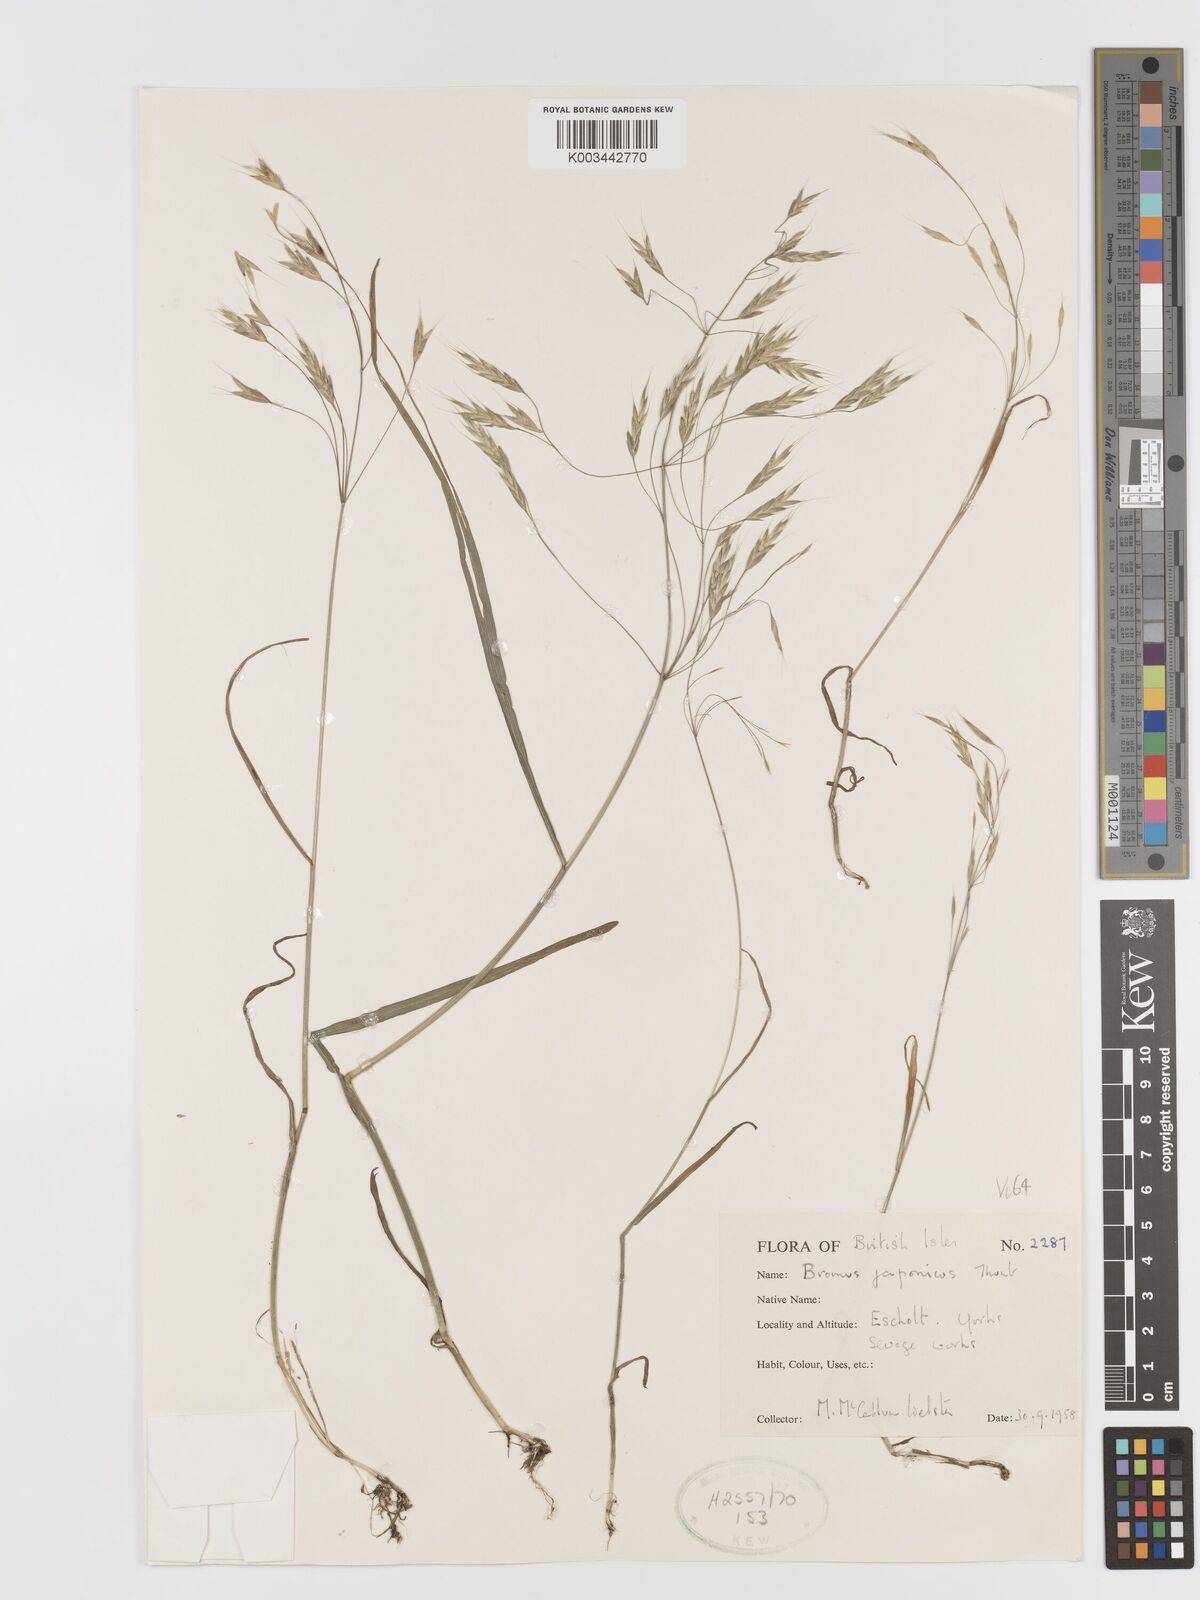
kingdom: Plantae
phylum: Tracheophyta
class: Liliopsida
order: Poales
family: Poaceae
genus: Bromus
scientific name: Bromus japonicus
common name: Japanese brome
